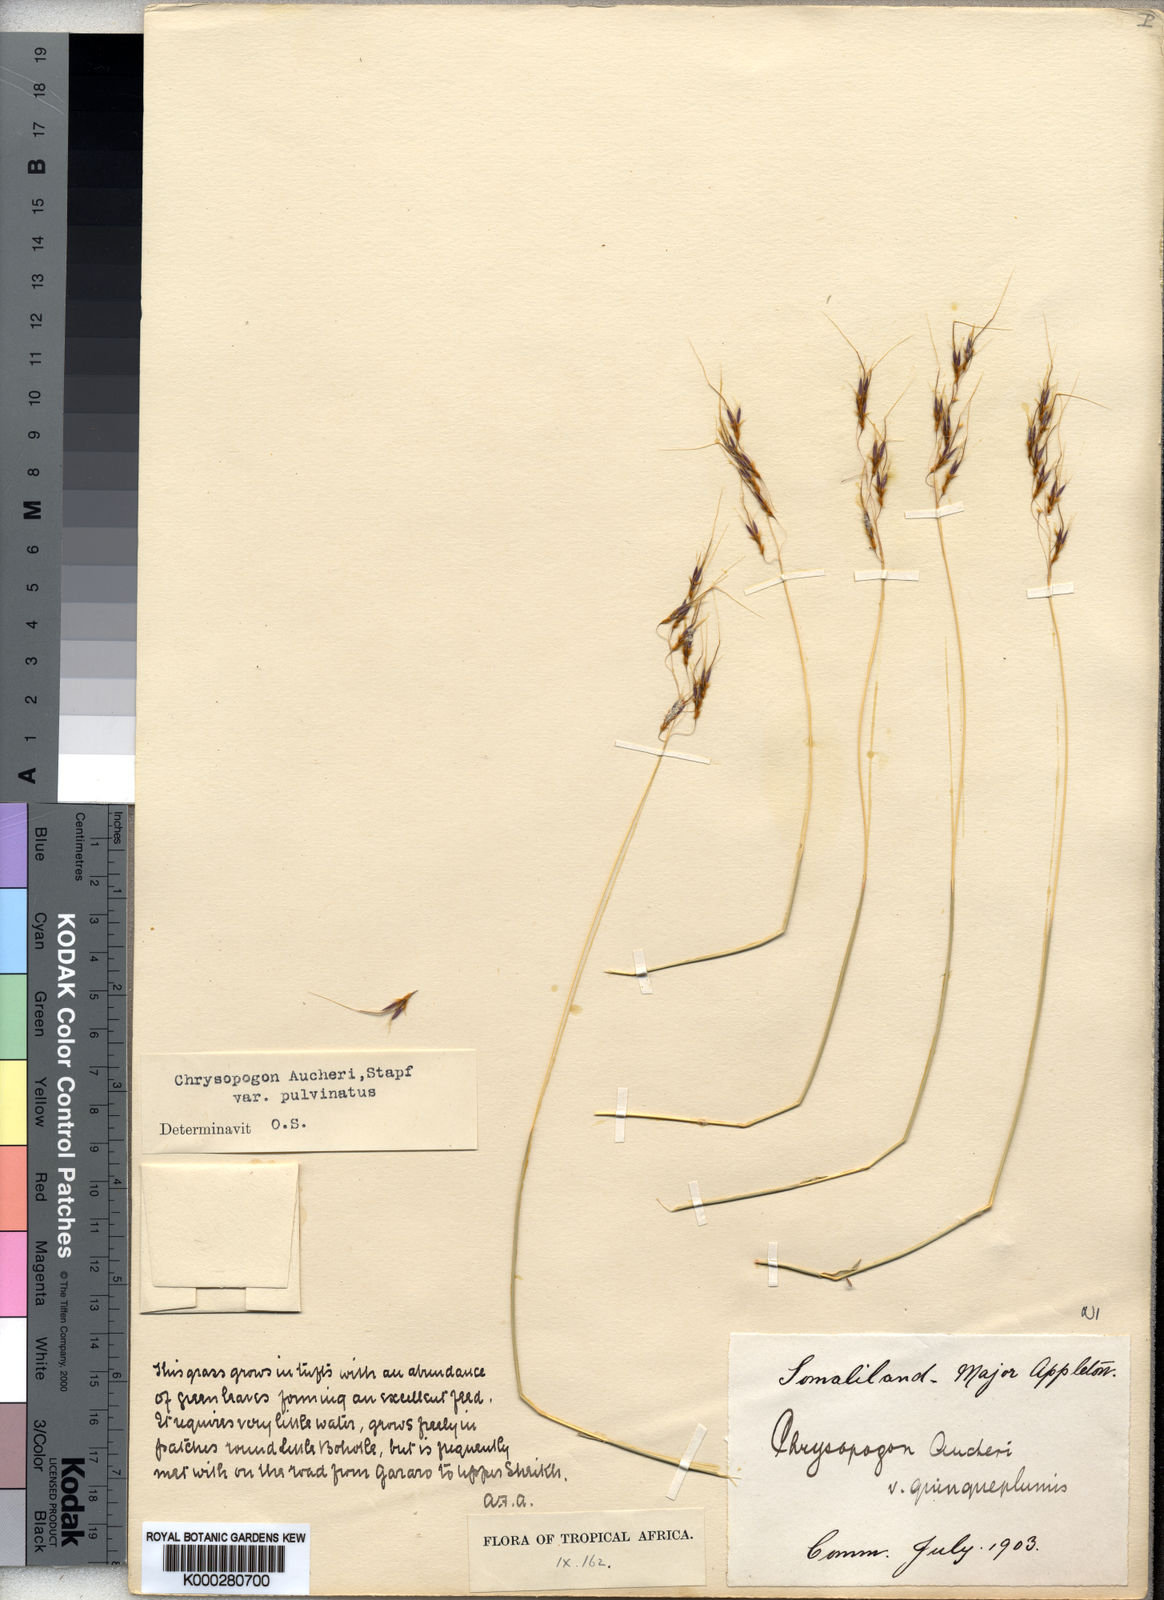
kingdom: Plantae
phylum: Tracheophyta
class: Liliopsida
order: Poales
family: Poaceae
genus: Chrysopogon
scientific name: Chrysopogon plumulosus
